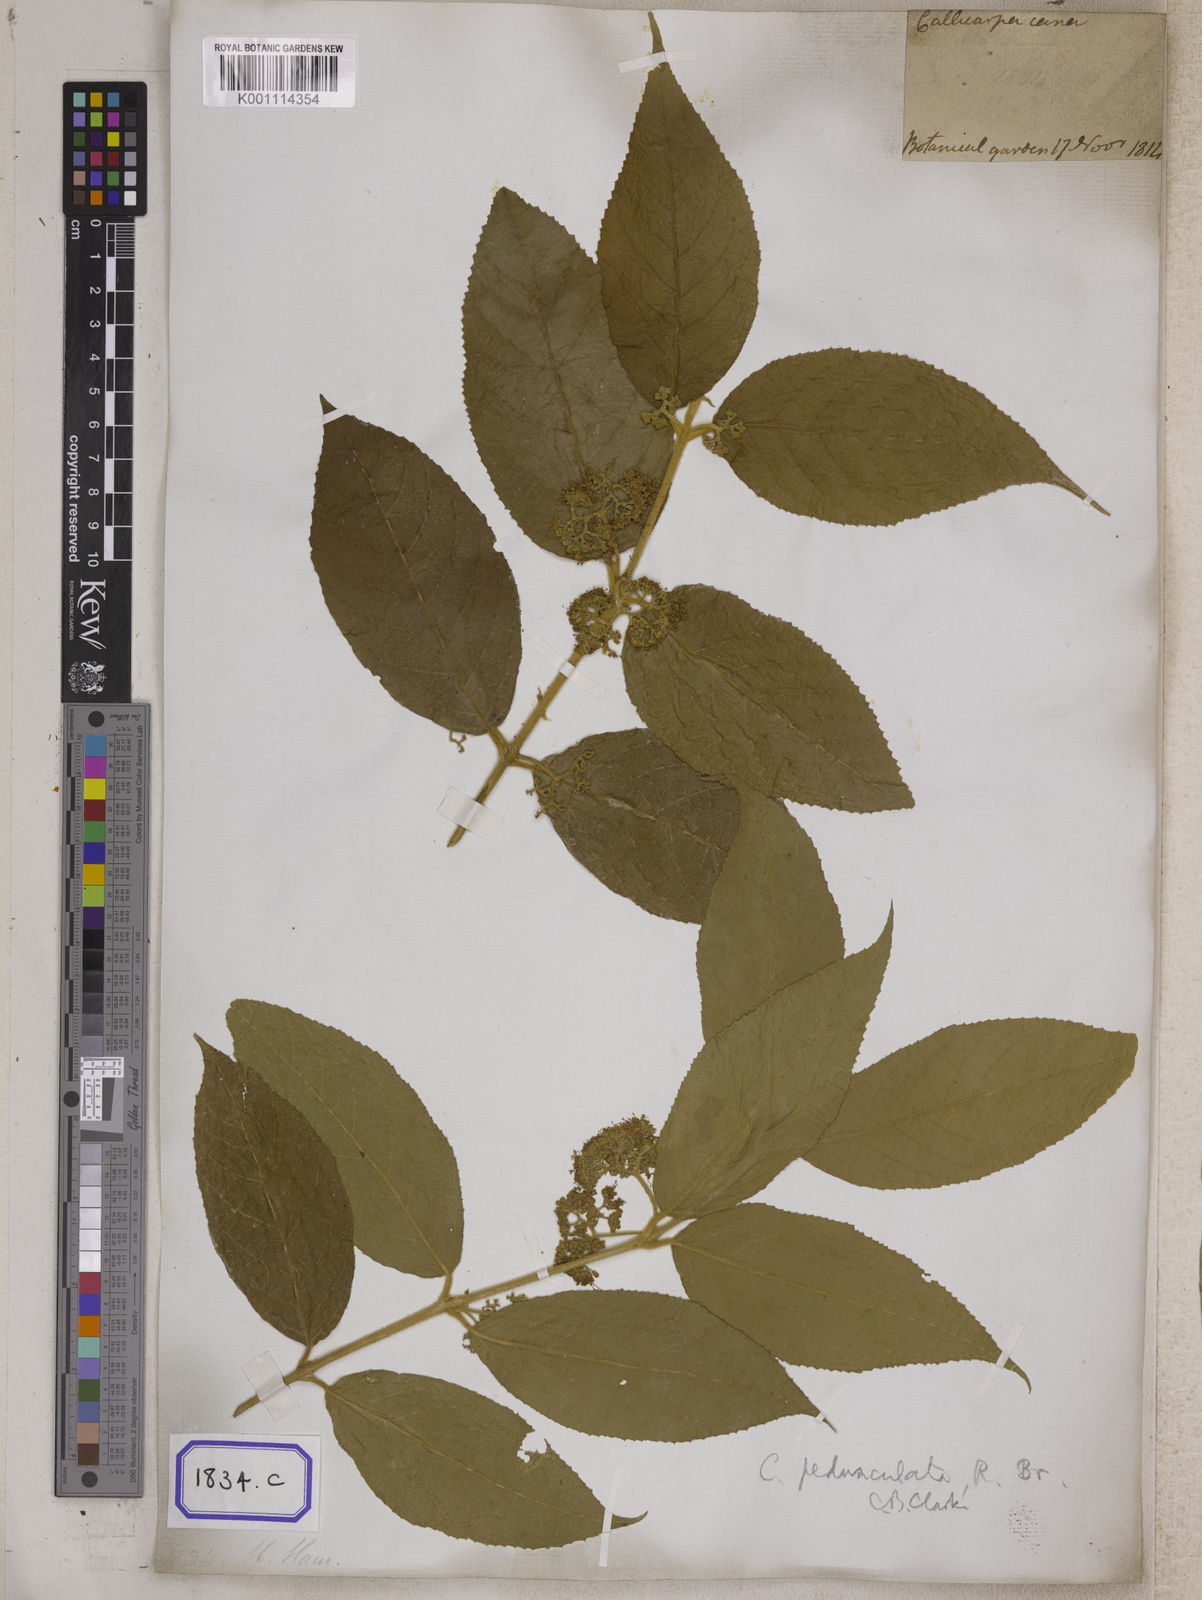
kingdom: Plantae
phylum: Tracheophyta
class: Magnoliopsida
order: Lamiales
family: Lamiaceae
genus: Callicarpa
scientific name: Callicarpa candicans
